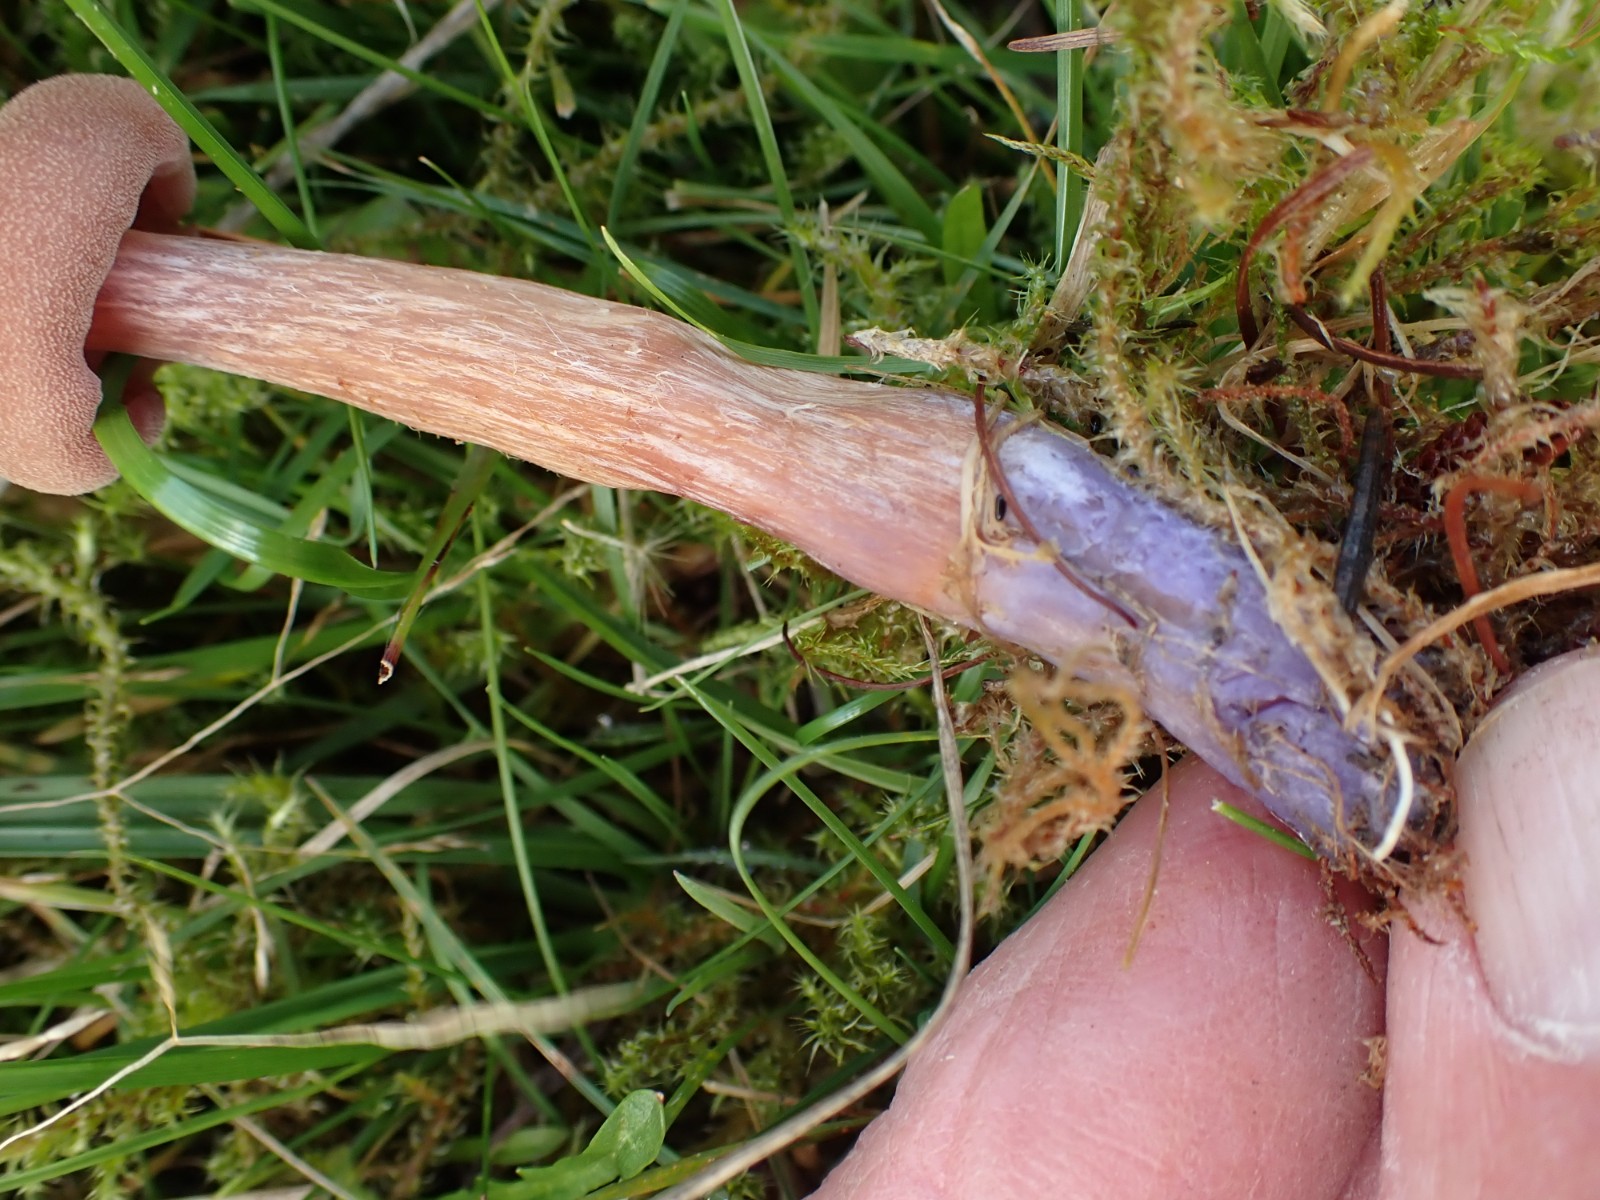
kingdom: Fungi
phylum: Basidiomycota
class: Agaricomycetes
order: Agaricales
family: Hydnangiaceae
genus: Laccaria
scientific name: Laccaria bicolor
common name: tvefarvet ametysthat
